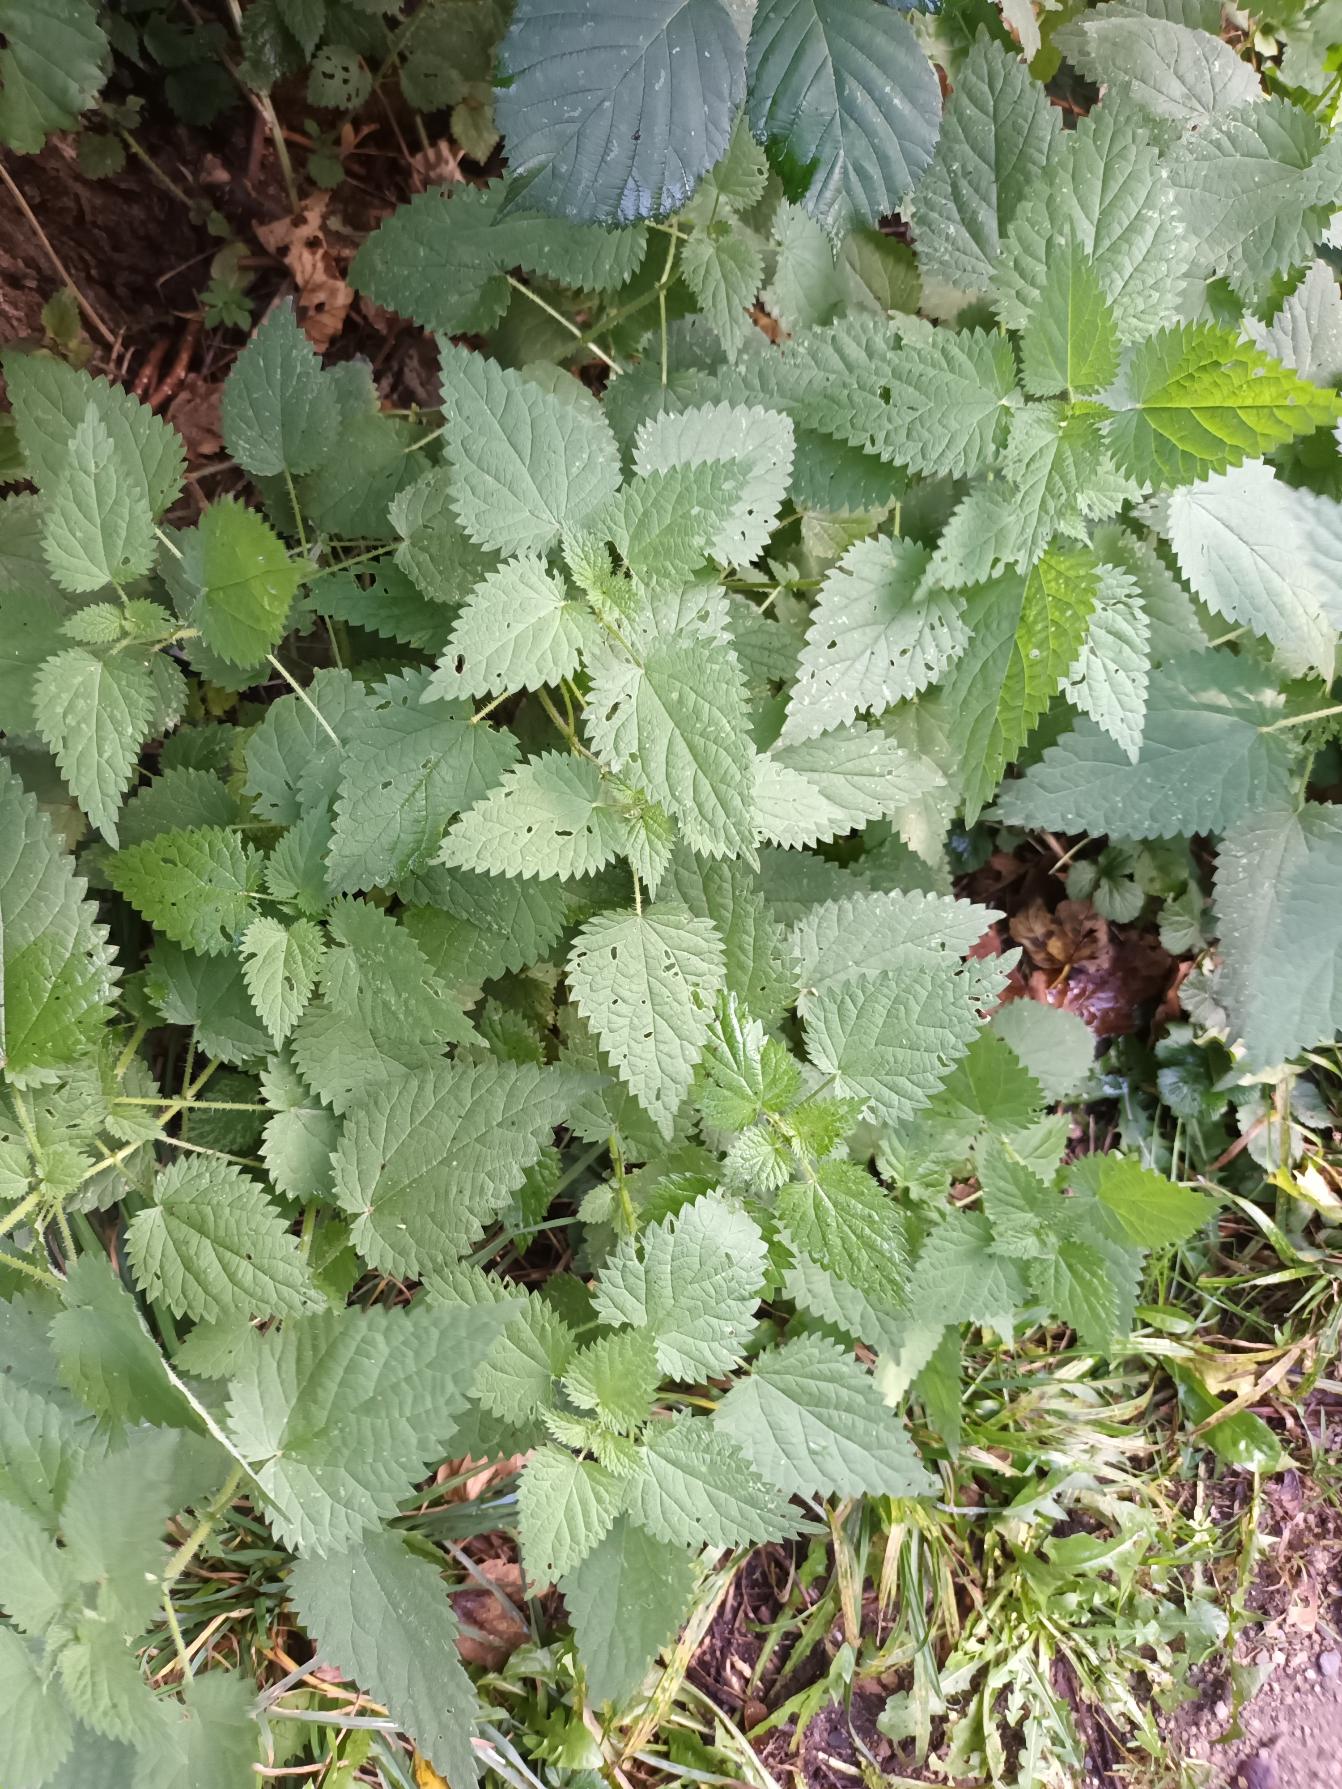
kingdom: Plantae
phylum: Tracheophyta
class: Magnoliopsida
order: Rosales
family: Urticaceae
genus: Urtica
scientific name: Urtica dioica
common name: Stor nælde
